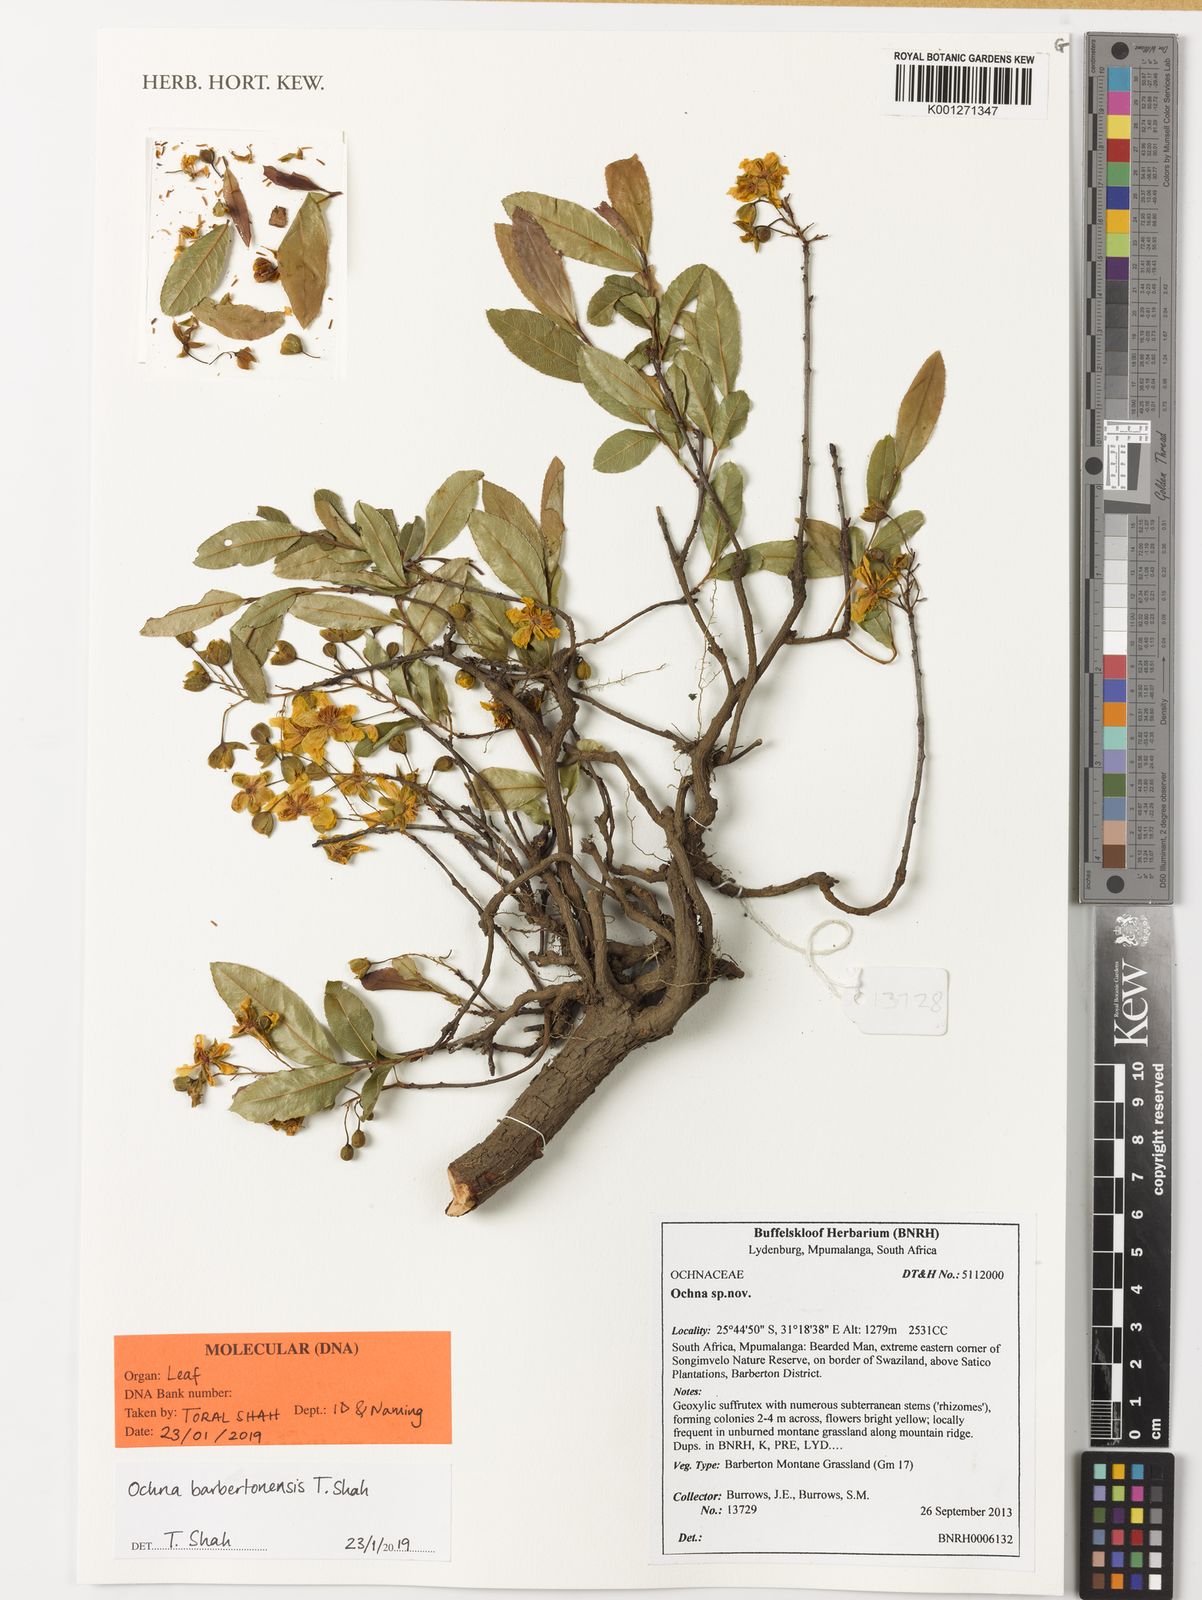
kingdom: Plantae
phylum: Tracheophyta
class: Magnoliopsida
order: Malpighiales
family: Ochnaceae
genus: Ochna
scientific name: Ochna barbertonensis
